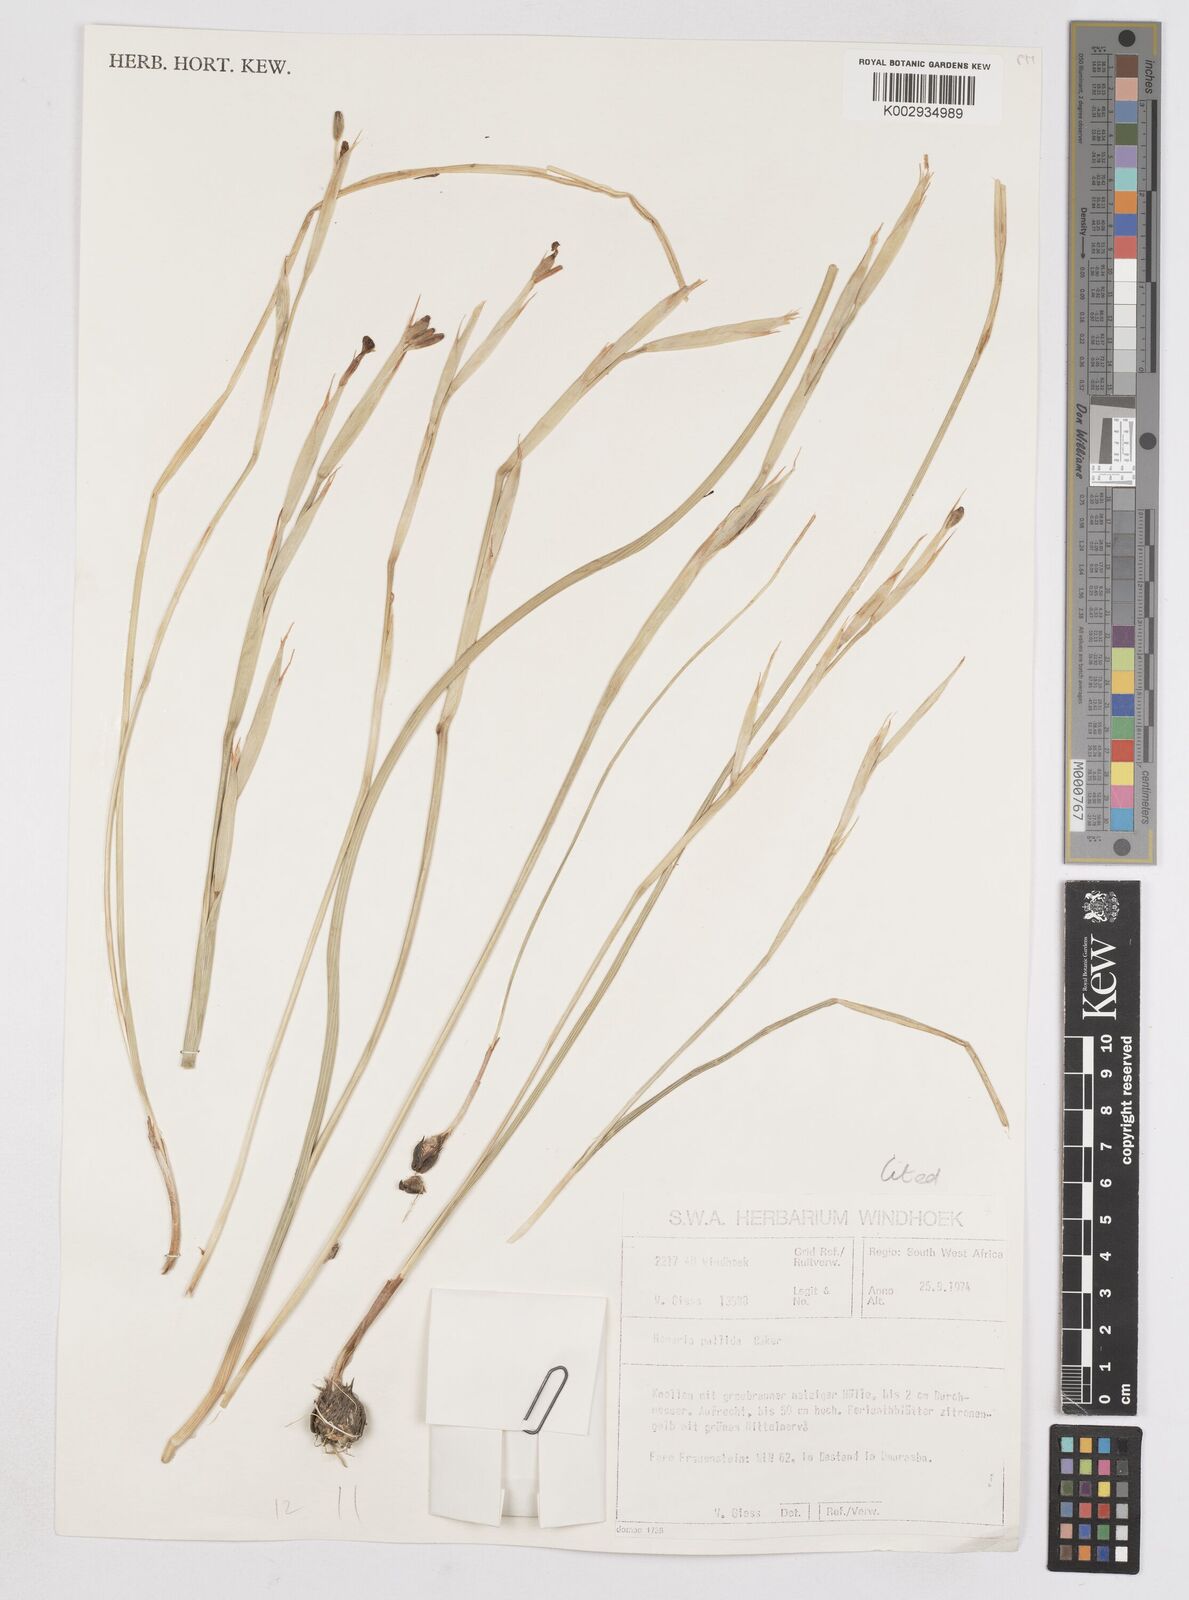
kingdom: Plantae
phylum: Tracheophyta
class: Liliopsida
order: Asparagales
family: Iridaceae
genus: Moraea
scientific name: Moraea pallida
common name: Yellow tulp
